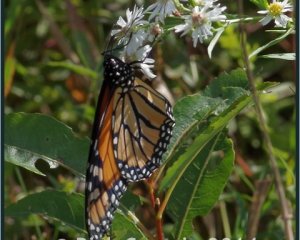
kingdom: Animalia
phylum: Arthropoda
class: Insecta
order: Lepidoptera
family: Nymphalidae
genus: Danaus
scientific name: Danaus plexippus
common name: Monarch
